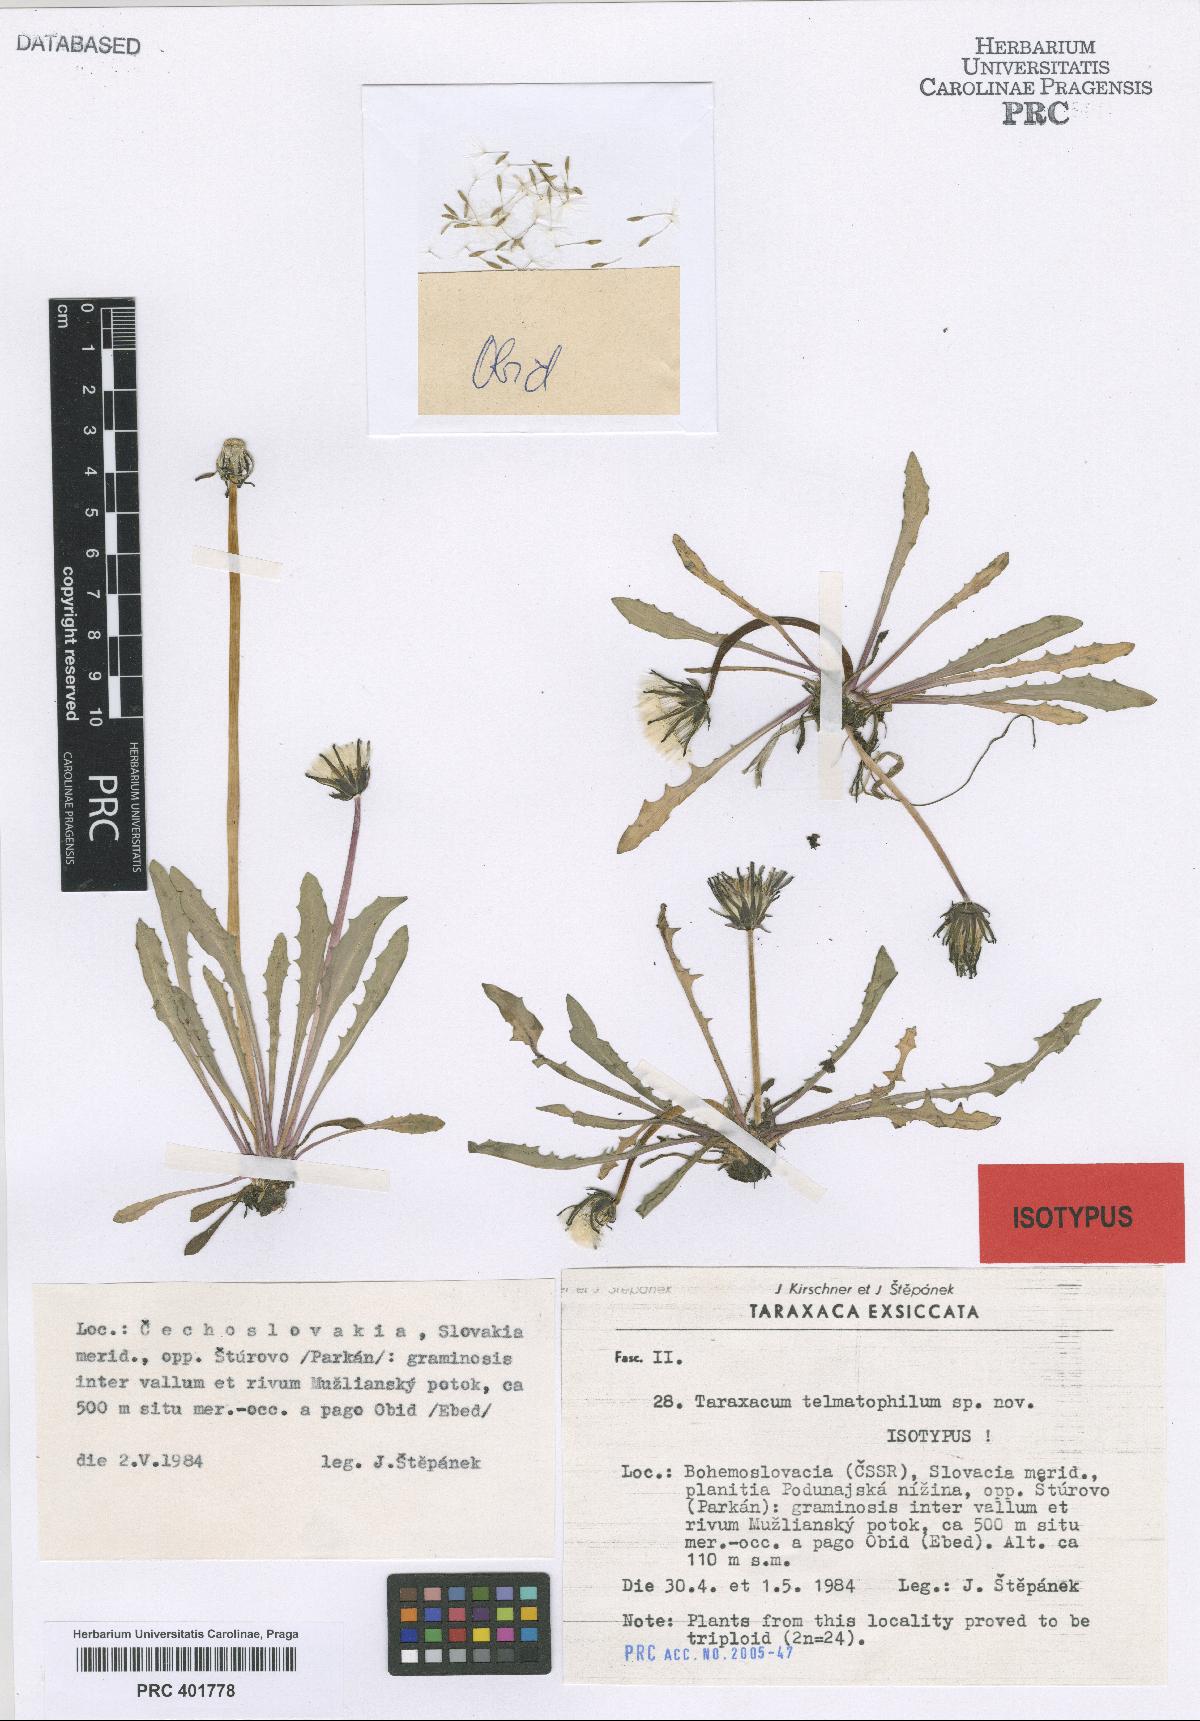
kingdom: Plantae
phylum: Tracheophyta
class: Magnoliopsida
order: Asterales
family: Asteraceae
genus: Taraxacum
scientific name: Taraxacum telmatophilum
